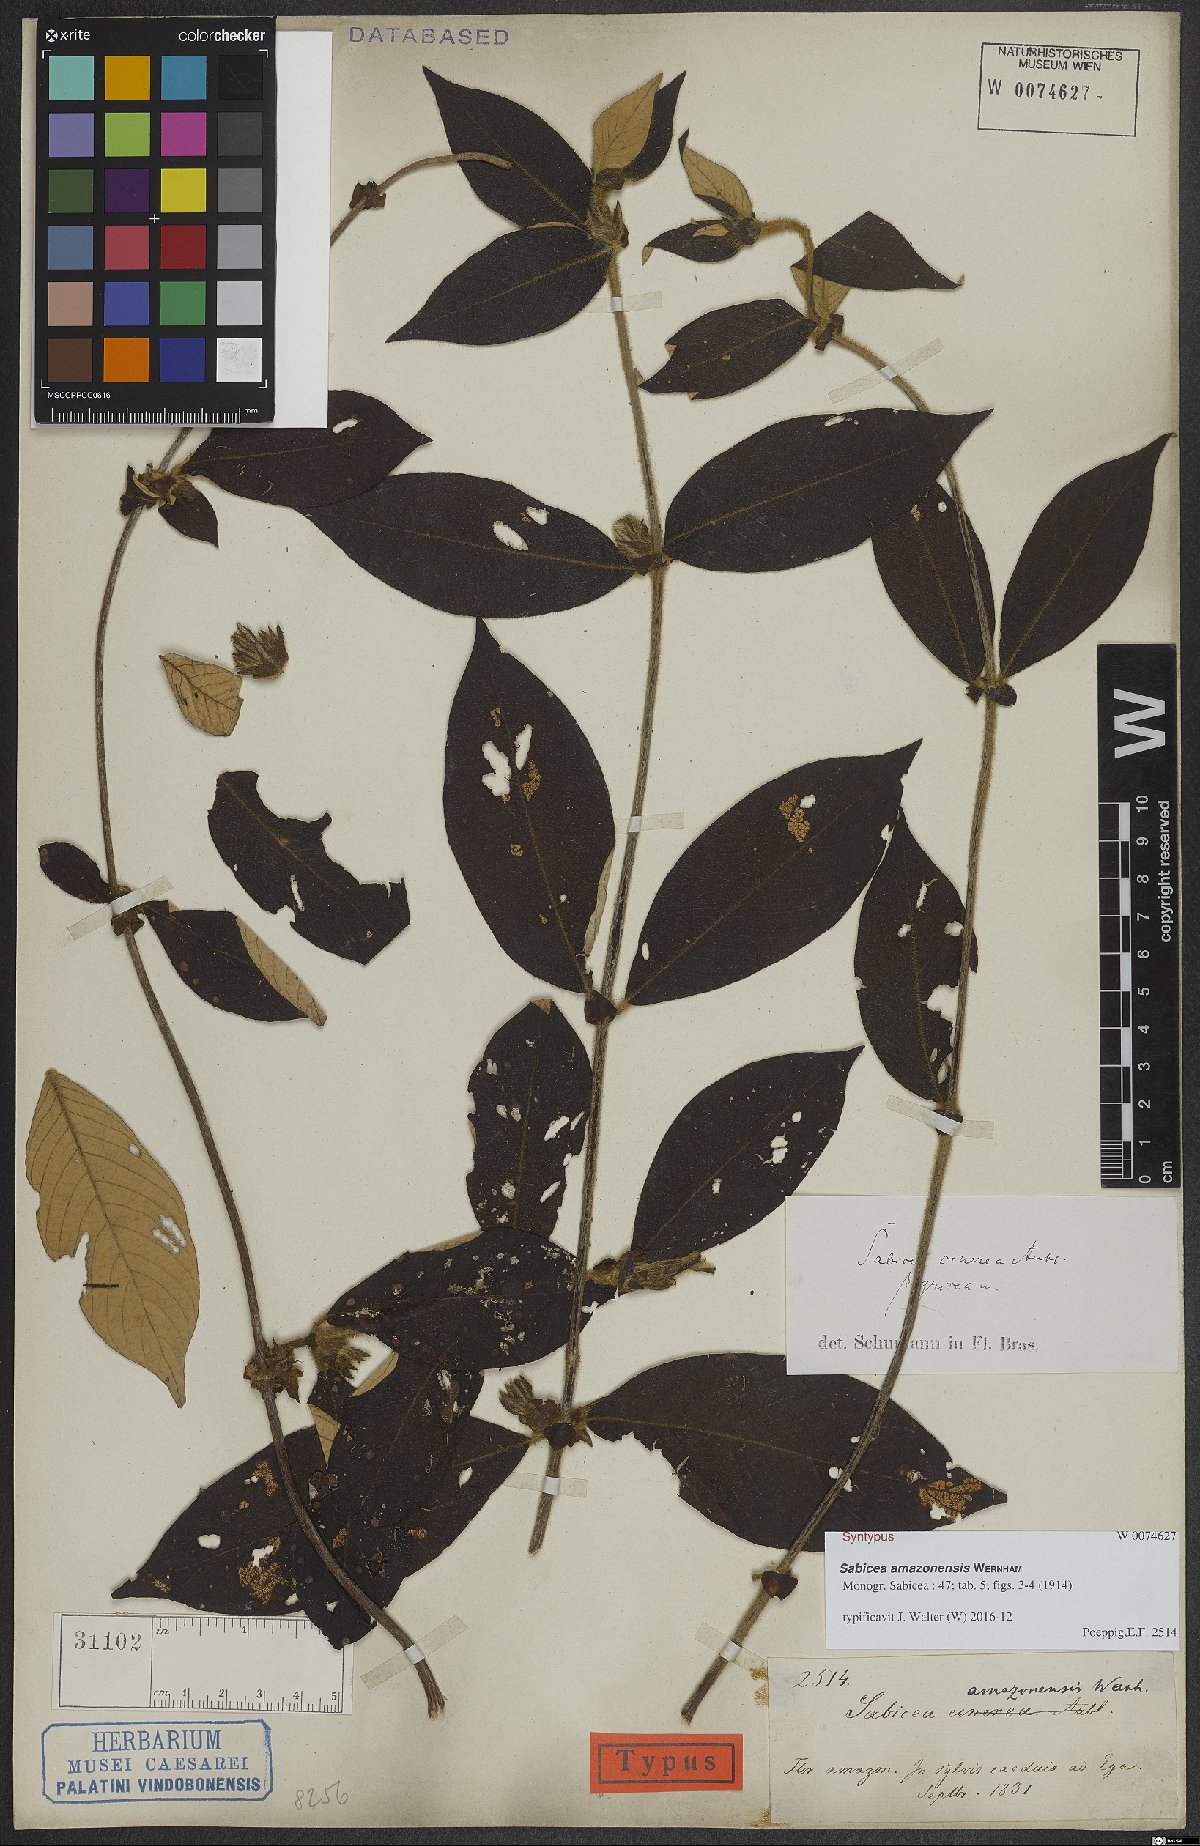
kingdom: Plantae
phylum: Tracheophyta
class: Magnoliopsida
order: Gentianales
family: Rubiaceae
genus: Sabicea
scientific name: Sabicea amazonensis
